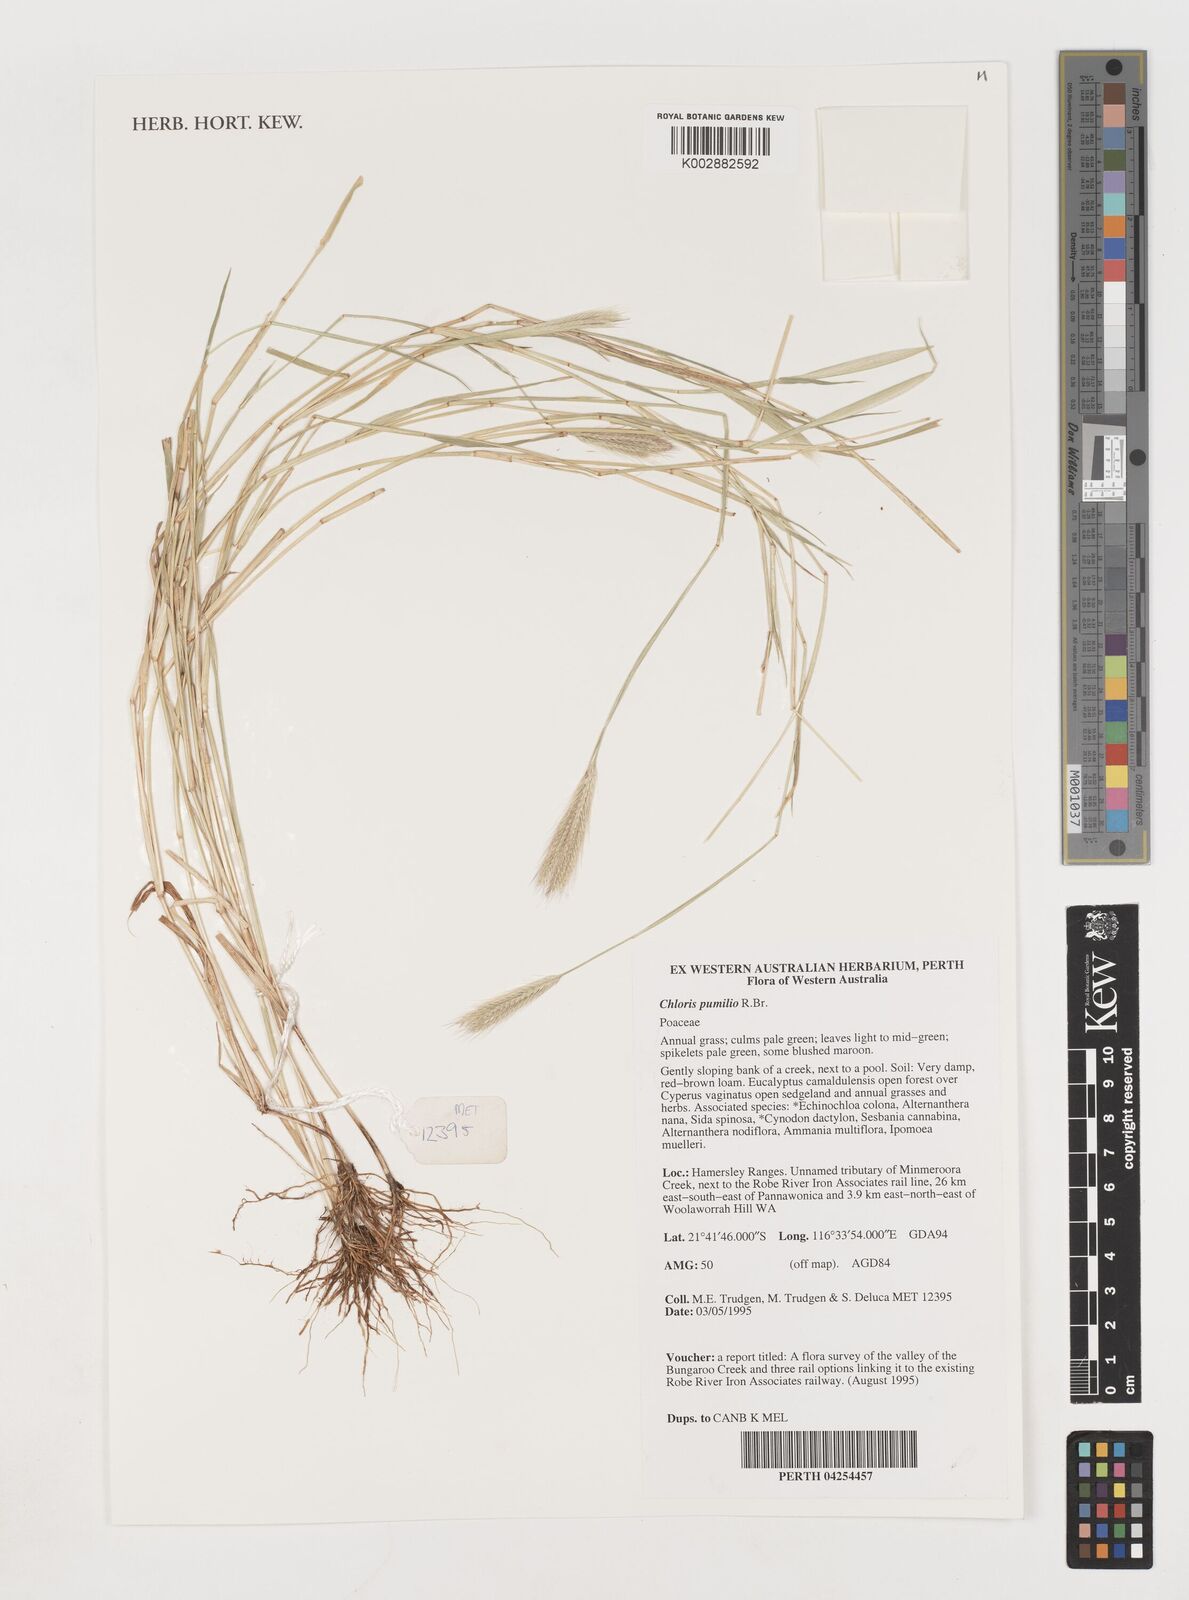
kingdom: Plantae
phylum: Tracheophyta
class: Liliopsida
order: Poales
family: Poaceae
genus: Chloris
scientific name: Chloris pumilio
